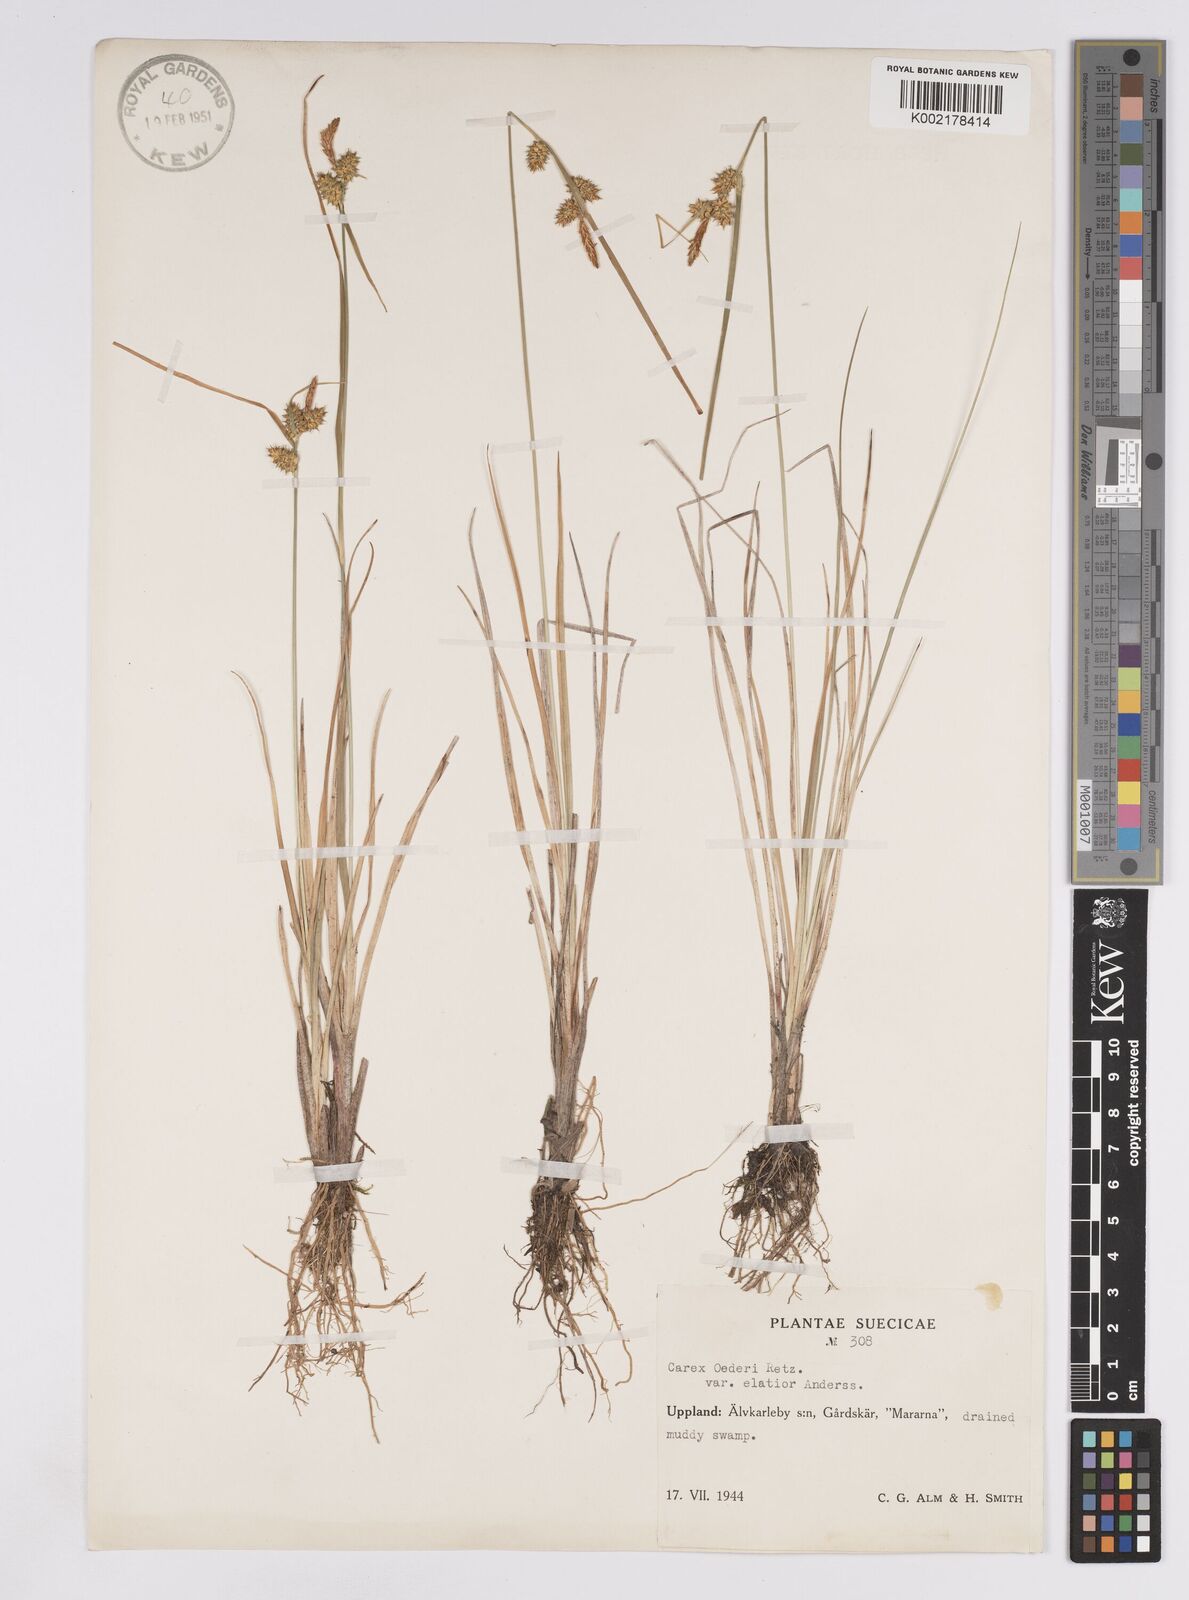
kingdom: Plantae
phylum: Tracheophyta
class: Liliopsida
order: Poales
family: Cyperaceae
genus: Carex
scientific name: Carex demissa
